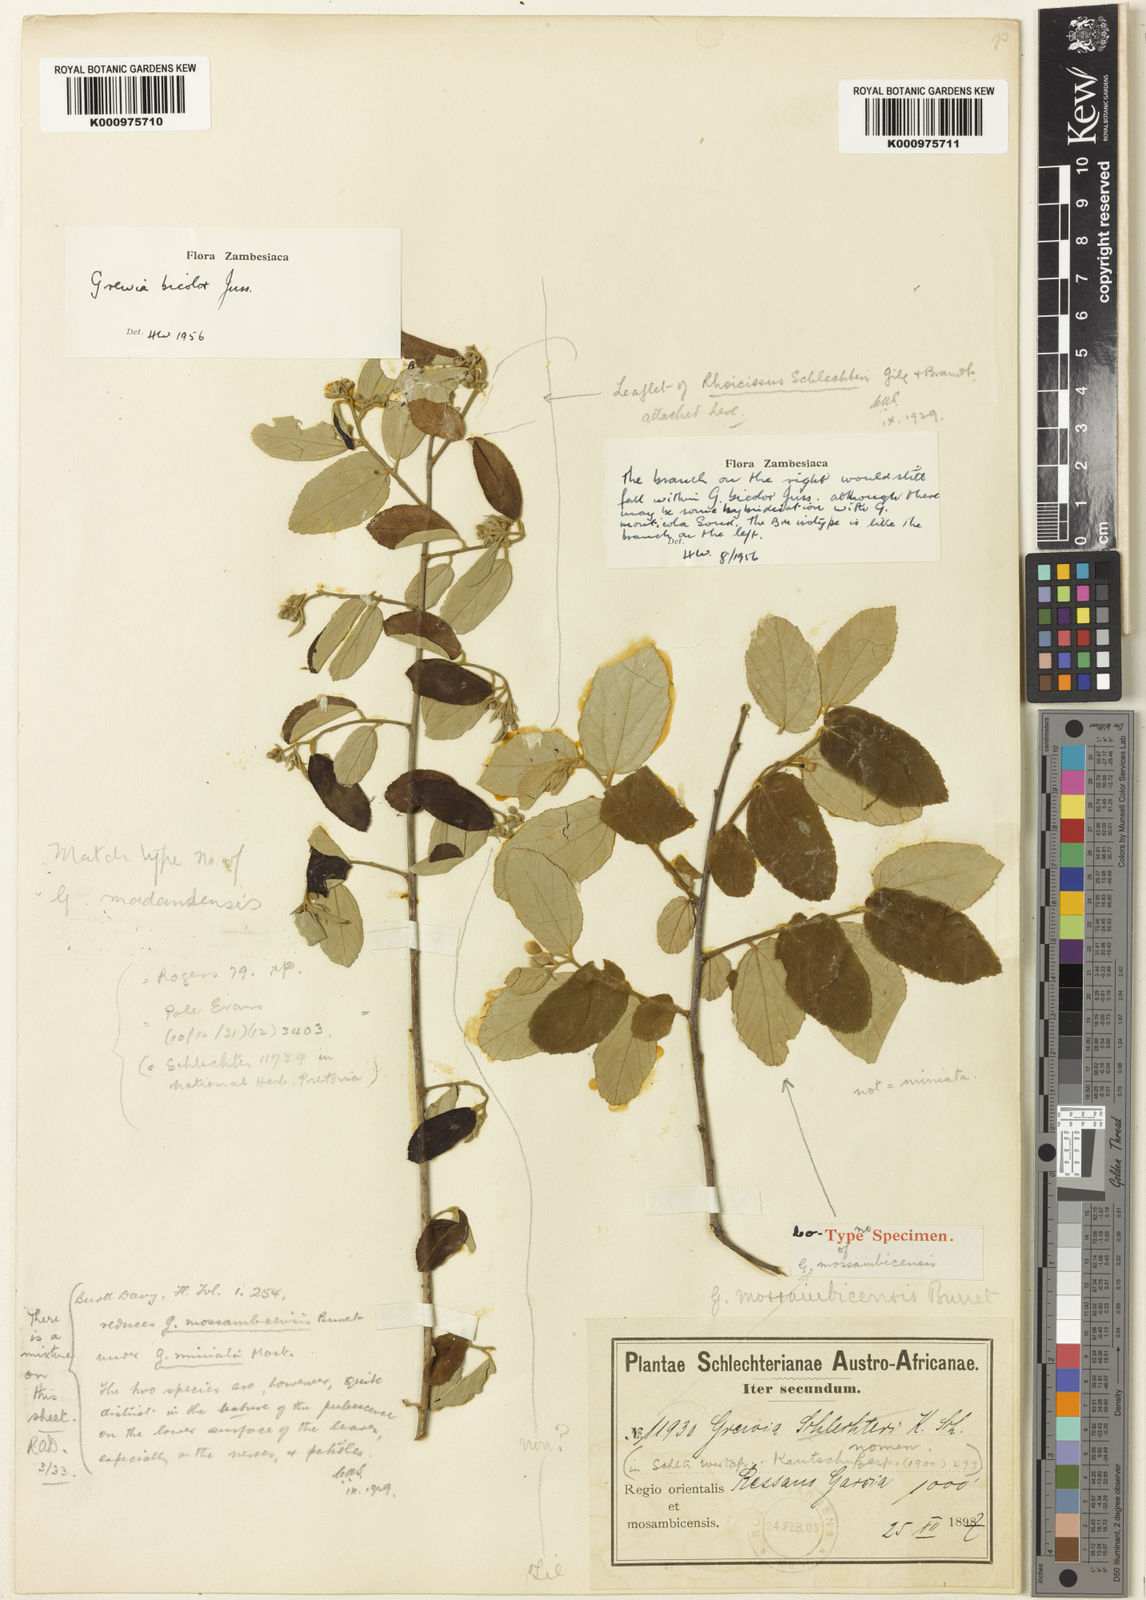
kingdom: Plantae
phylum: Tracheophyta
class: Magnoliopsida
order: Malvales
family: Malvaceae
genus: Grewia
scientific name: Grewia bicolor
